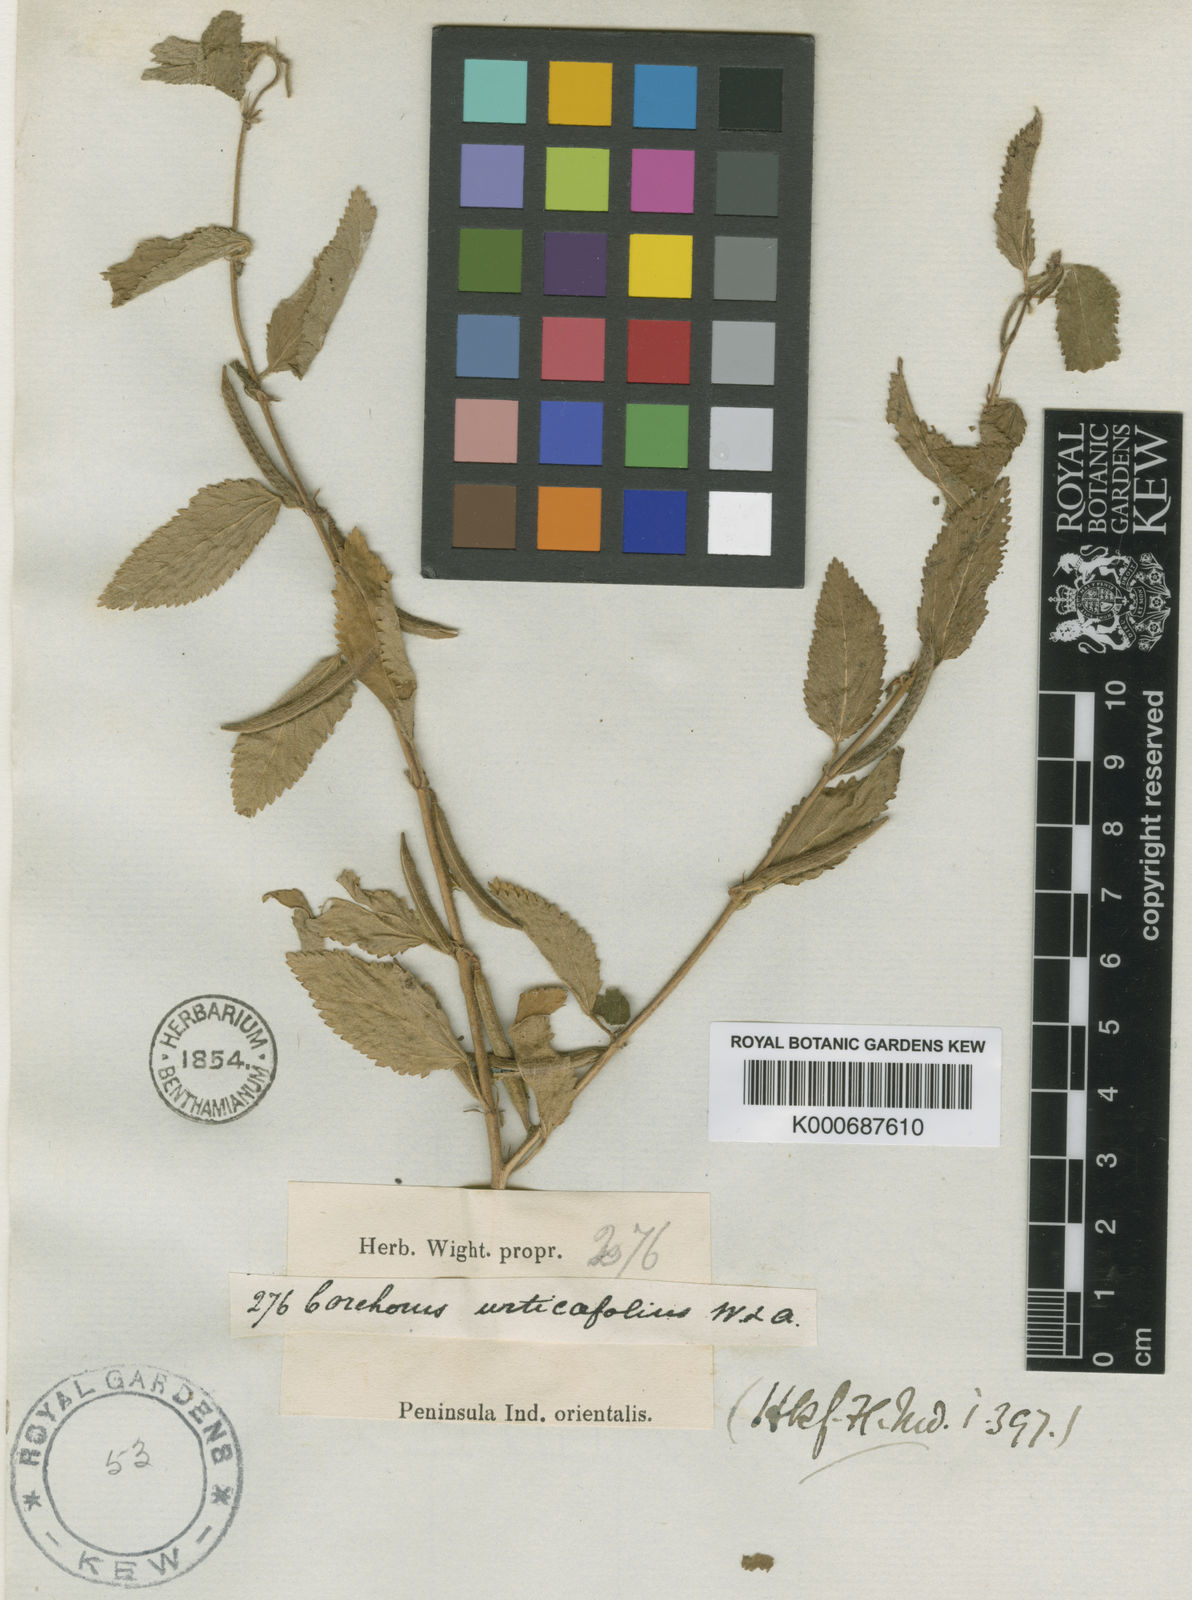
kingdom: Plantae
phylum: Tracheophyta
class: Magnoliopsida
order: Malvales
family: Malvaceae
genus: Corchorus
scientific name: Corchorus urticifolius
